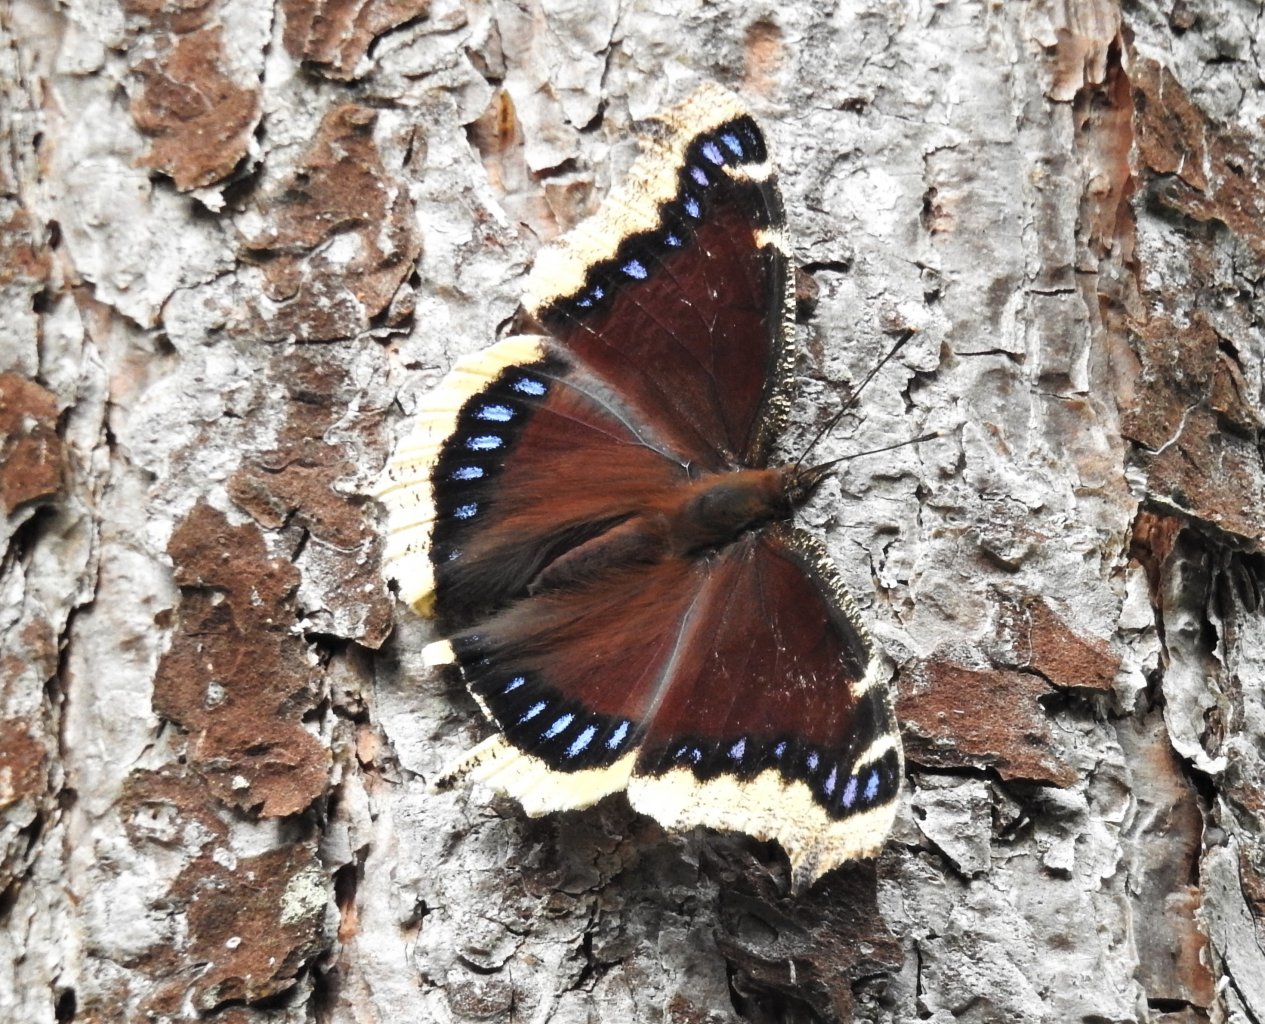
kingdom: Animalia
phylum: Arthropoda
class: Insecta
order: Lepidoptera
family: Nymphalidae
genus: Nymphalis
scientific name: Nymphalis antiopa
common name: Mourning Cloak
